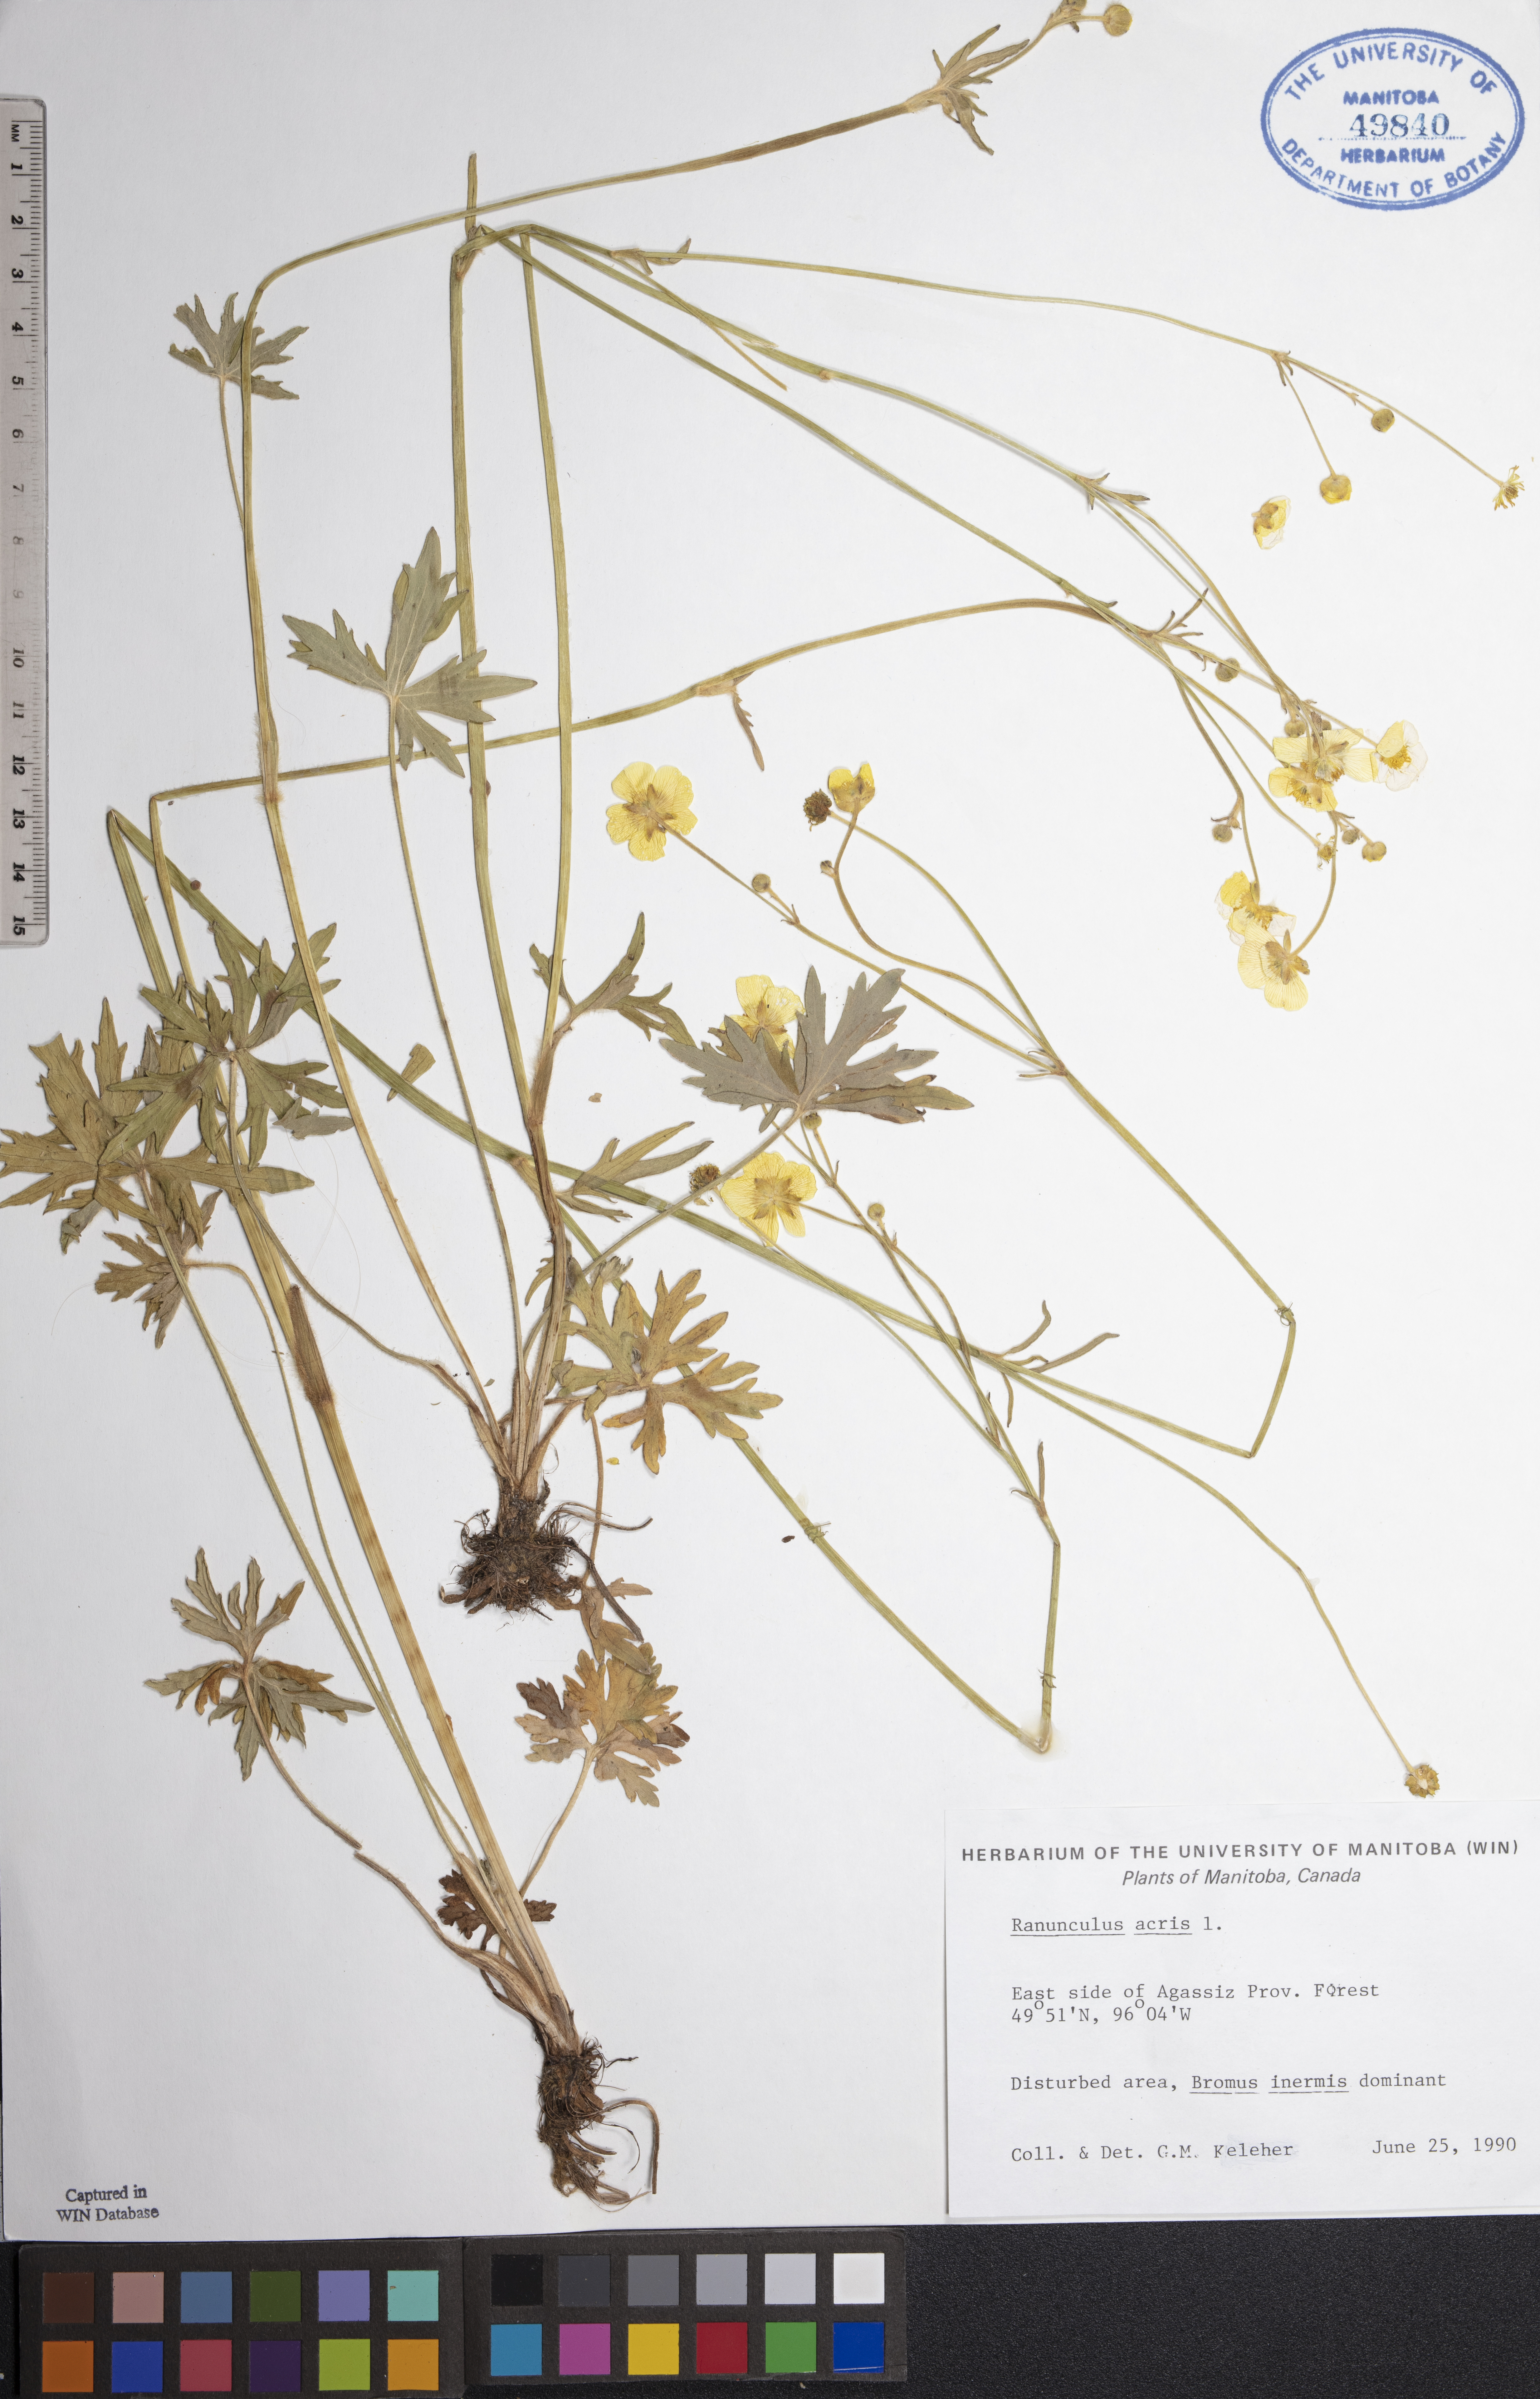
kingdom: Plantae
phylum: Tracheophyta
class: Magnoliopsida
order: Ranunculales
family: Ranunculaceae
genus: Ranunculus
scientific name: Ranunculus acris
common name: Meadow buttercup
